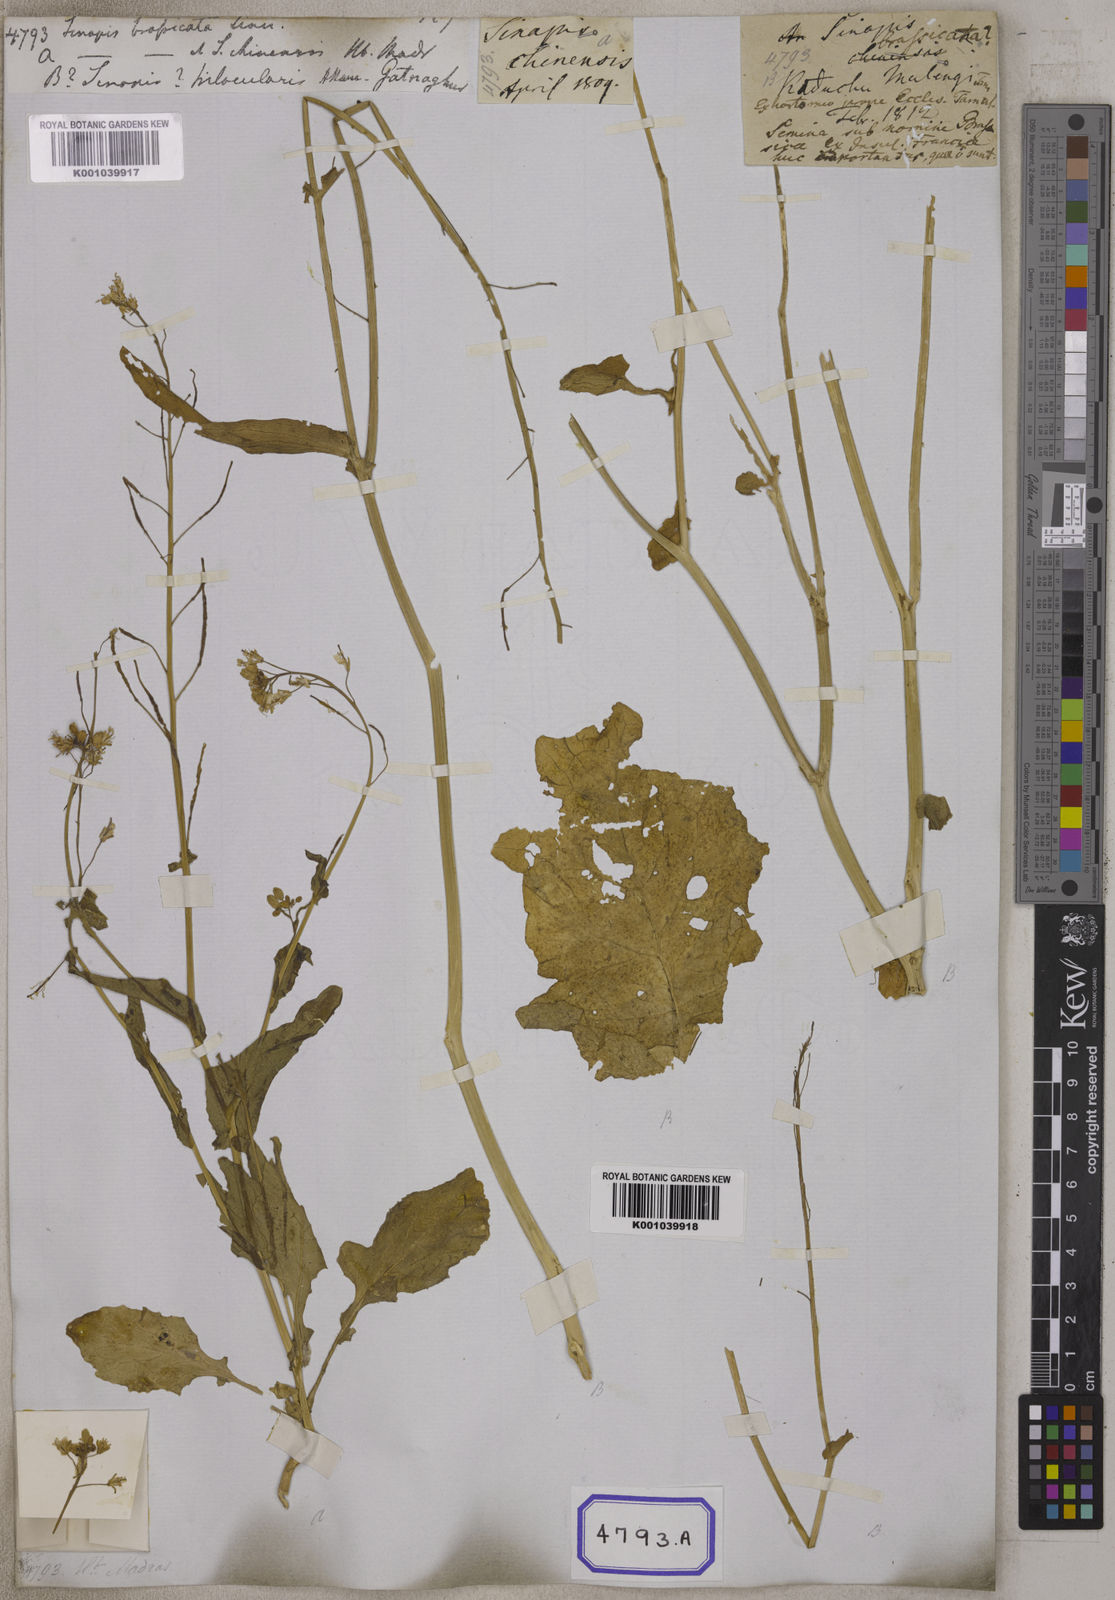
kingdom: Plantae
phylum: Tracheophyta
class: Magnoliopsida
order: Brassicales
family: Brassicaceae
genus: Sinapis
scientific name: Sinapis
